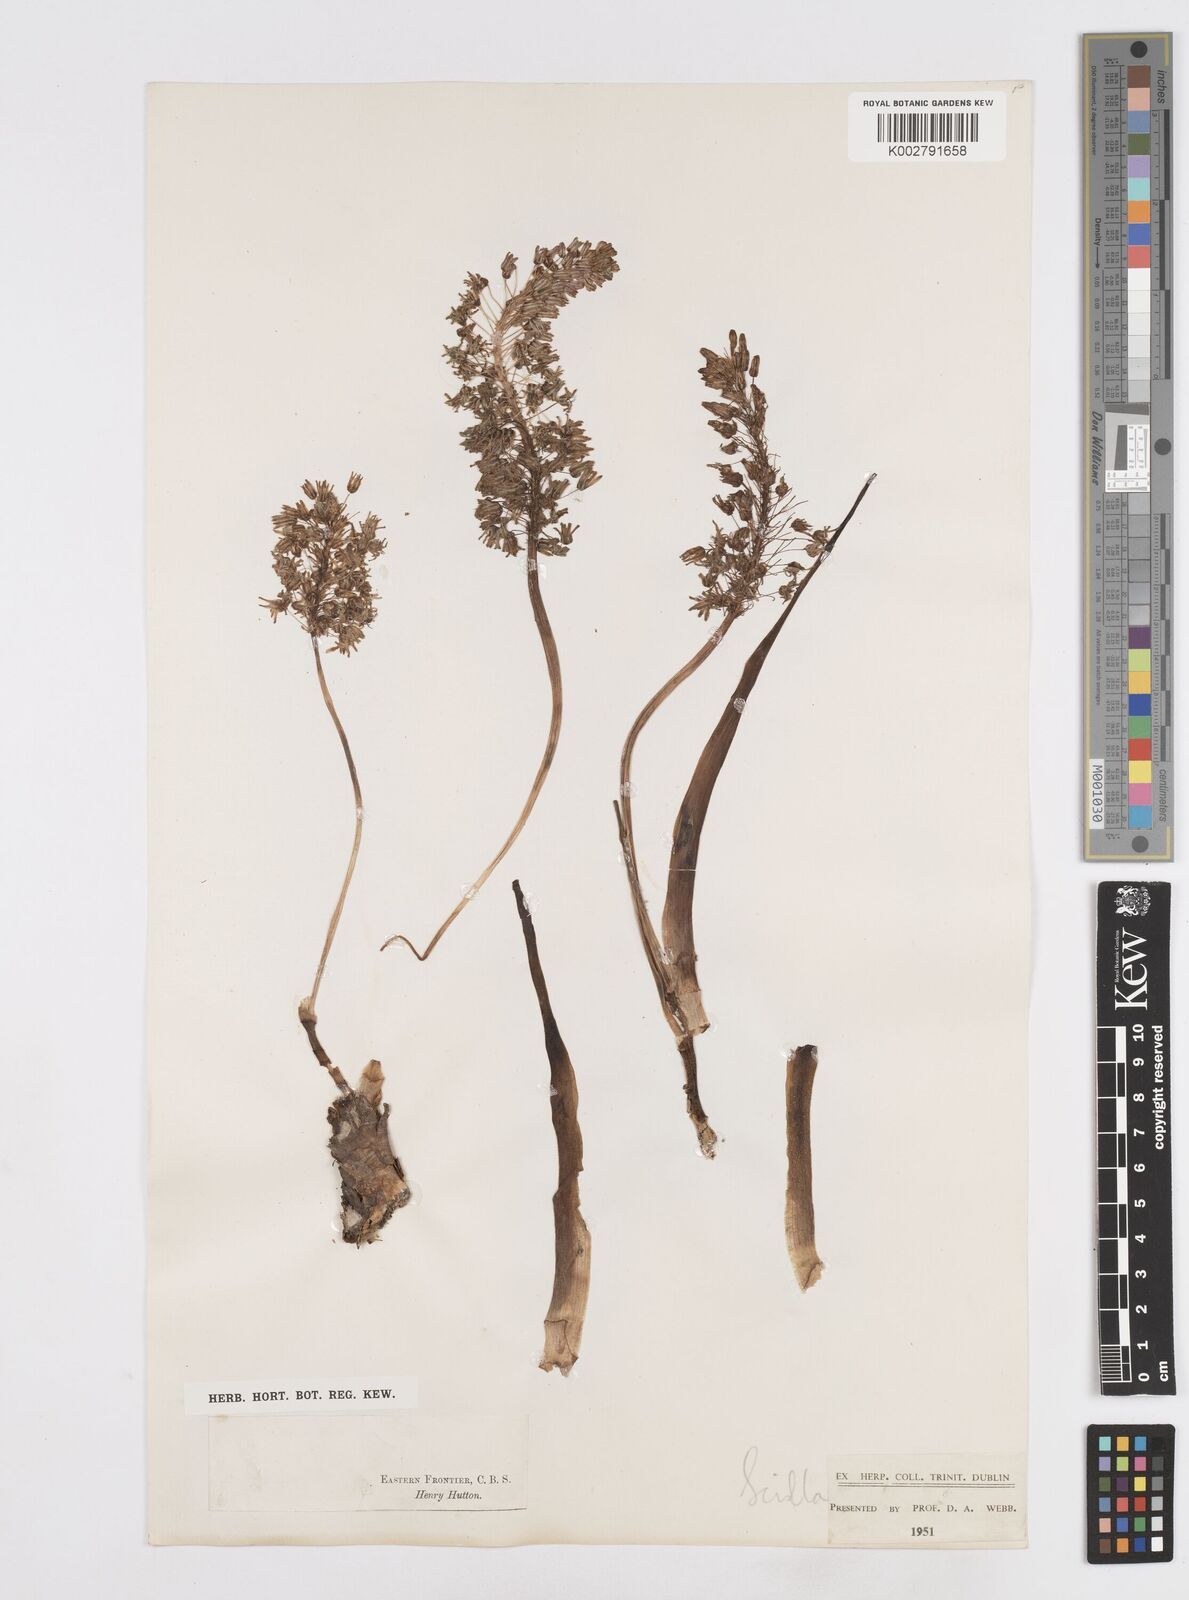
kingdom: Plantae
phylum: Tracheophyta
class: Liliopsida
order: Asparagales
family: Asparagaceae
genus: Scilla
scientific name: Scilla
